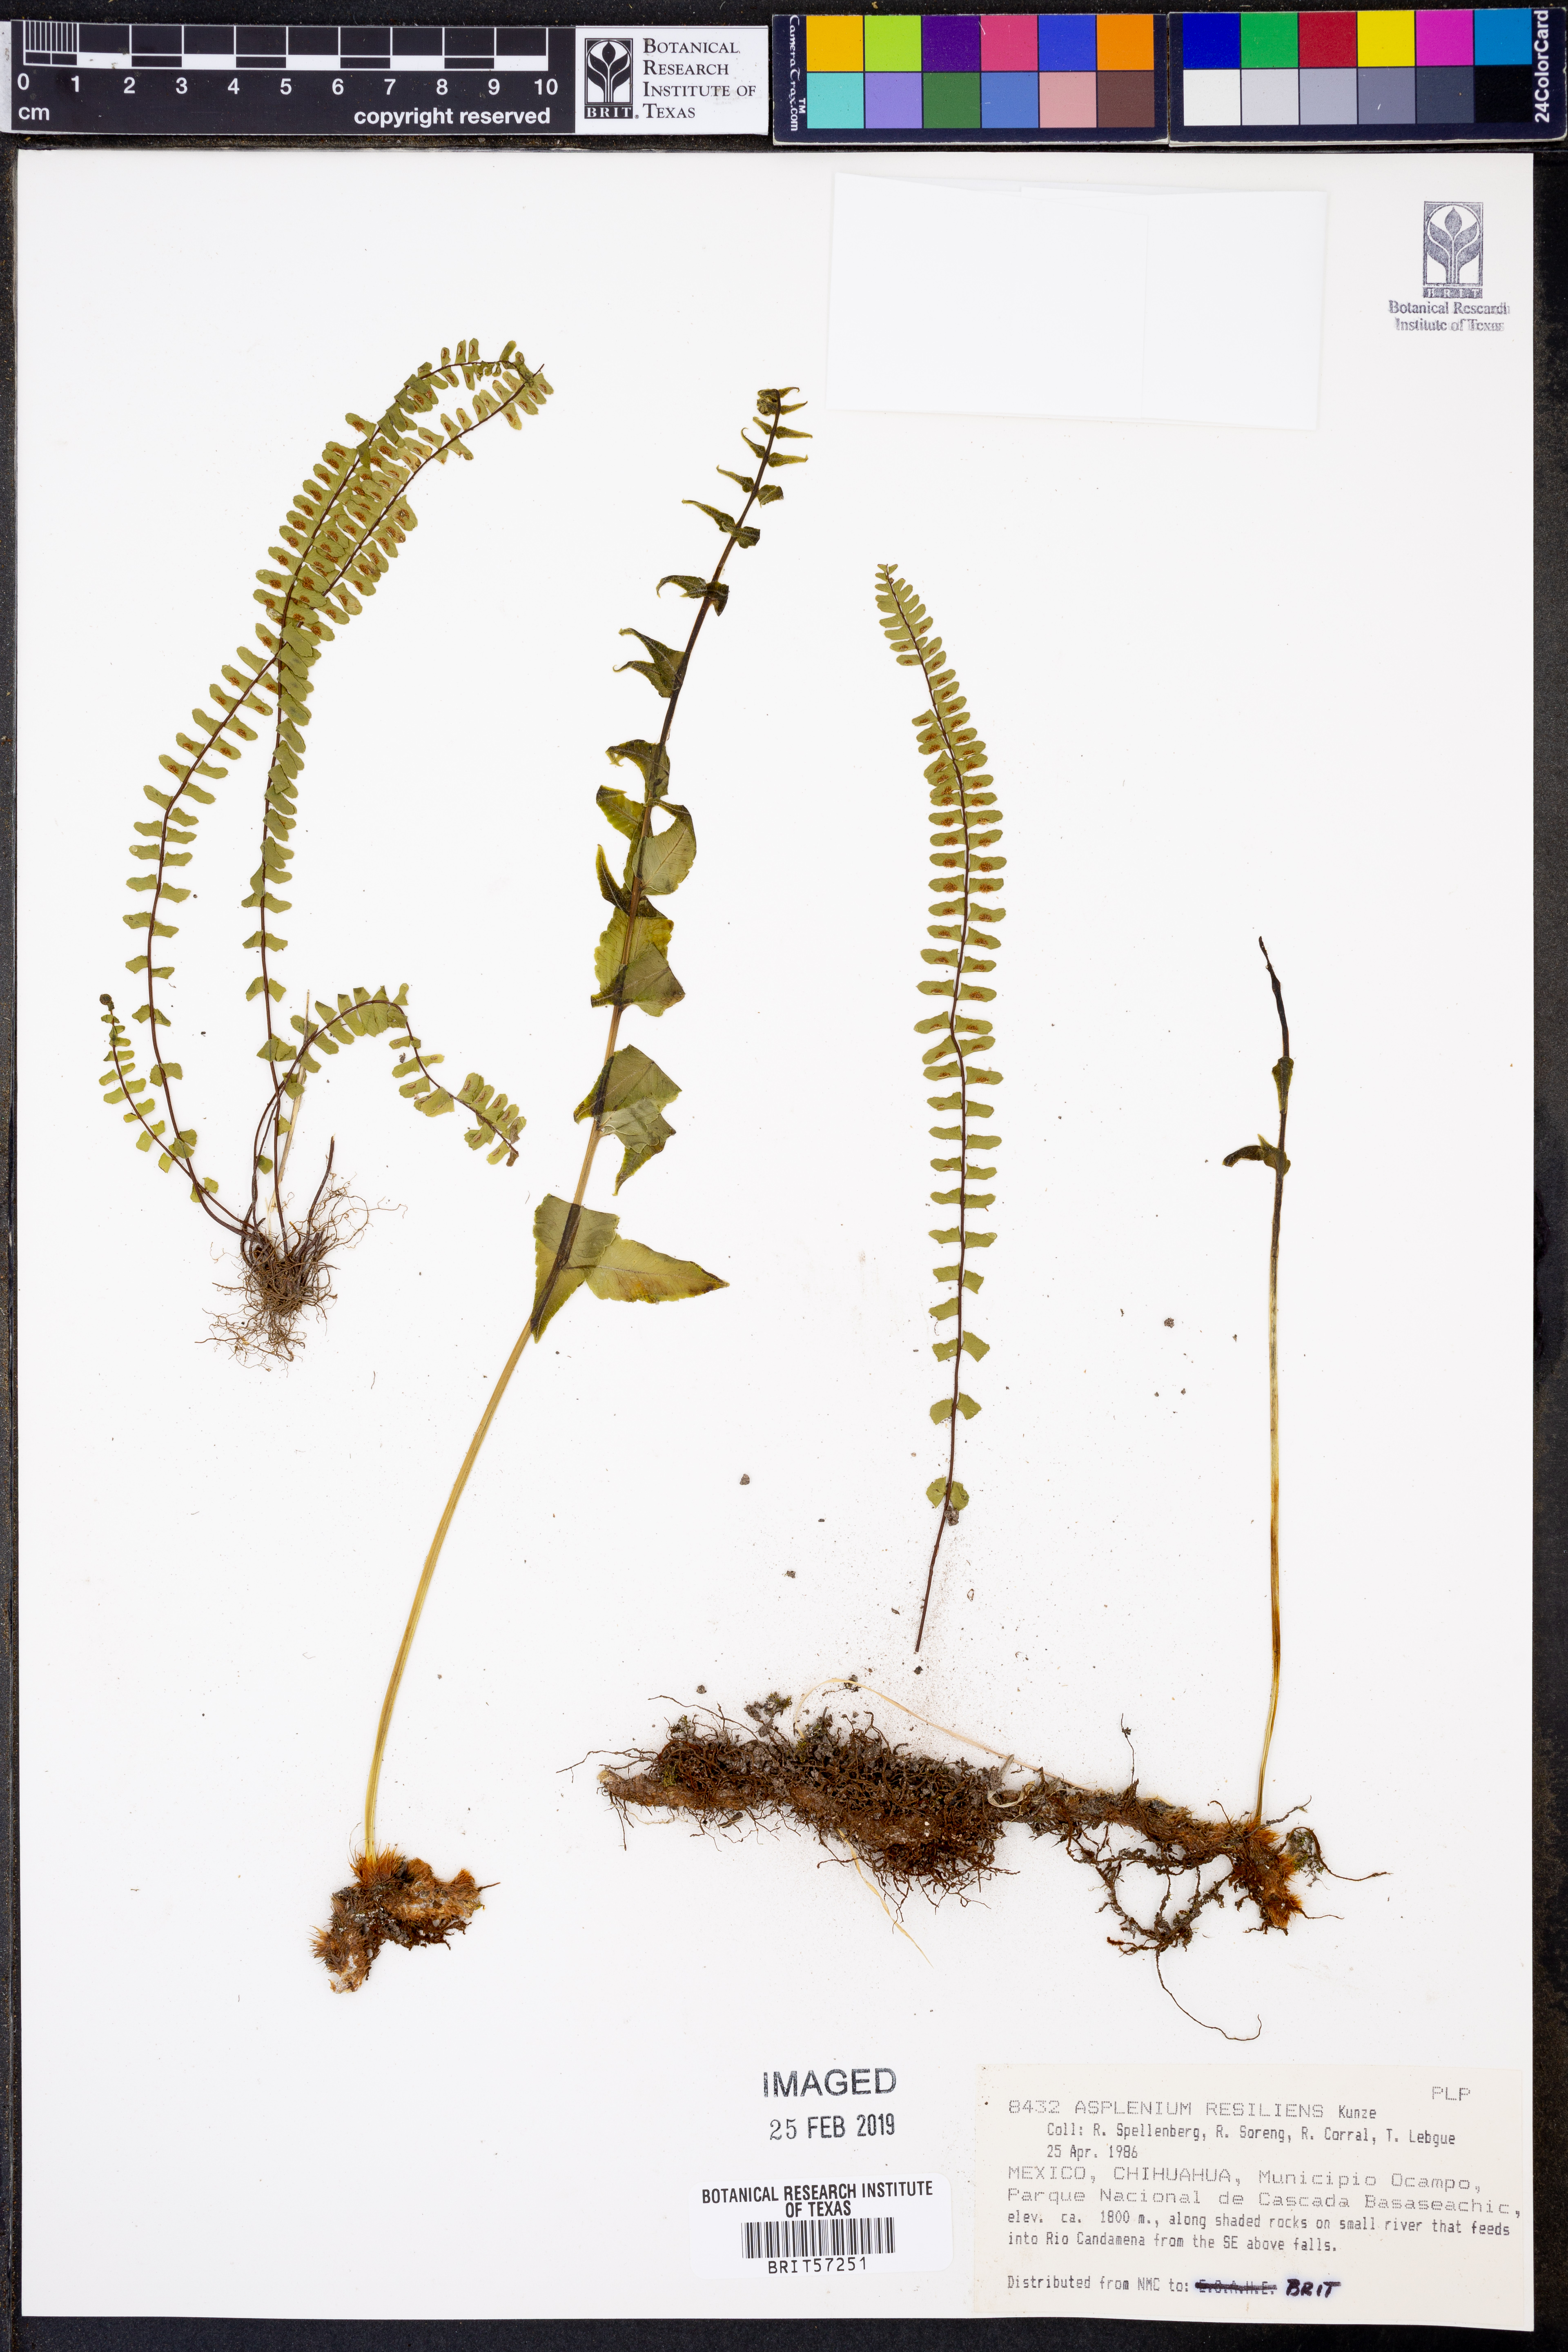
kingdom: Plantae
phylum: Tracheophyta
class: Polypodiopsida
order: Polypodiales
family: Aspleniaceae
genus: Asplenium
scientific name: Asplenium resiliens
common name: Blackstem spleenwort
